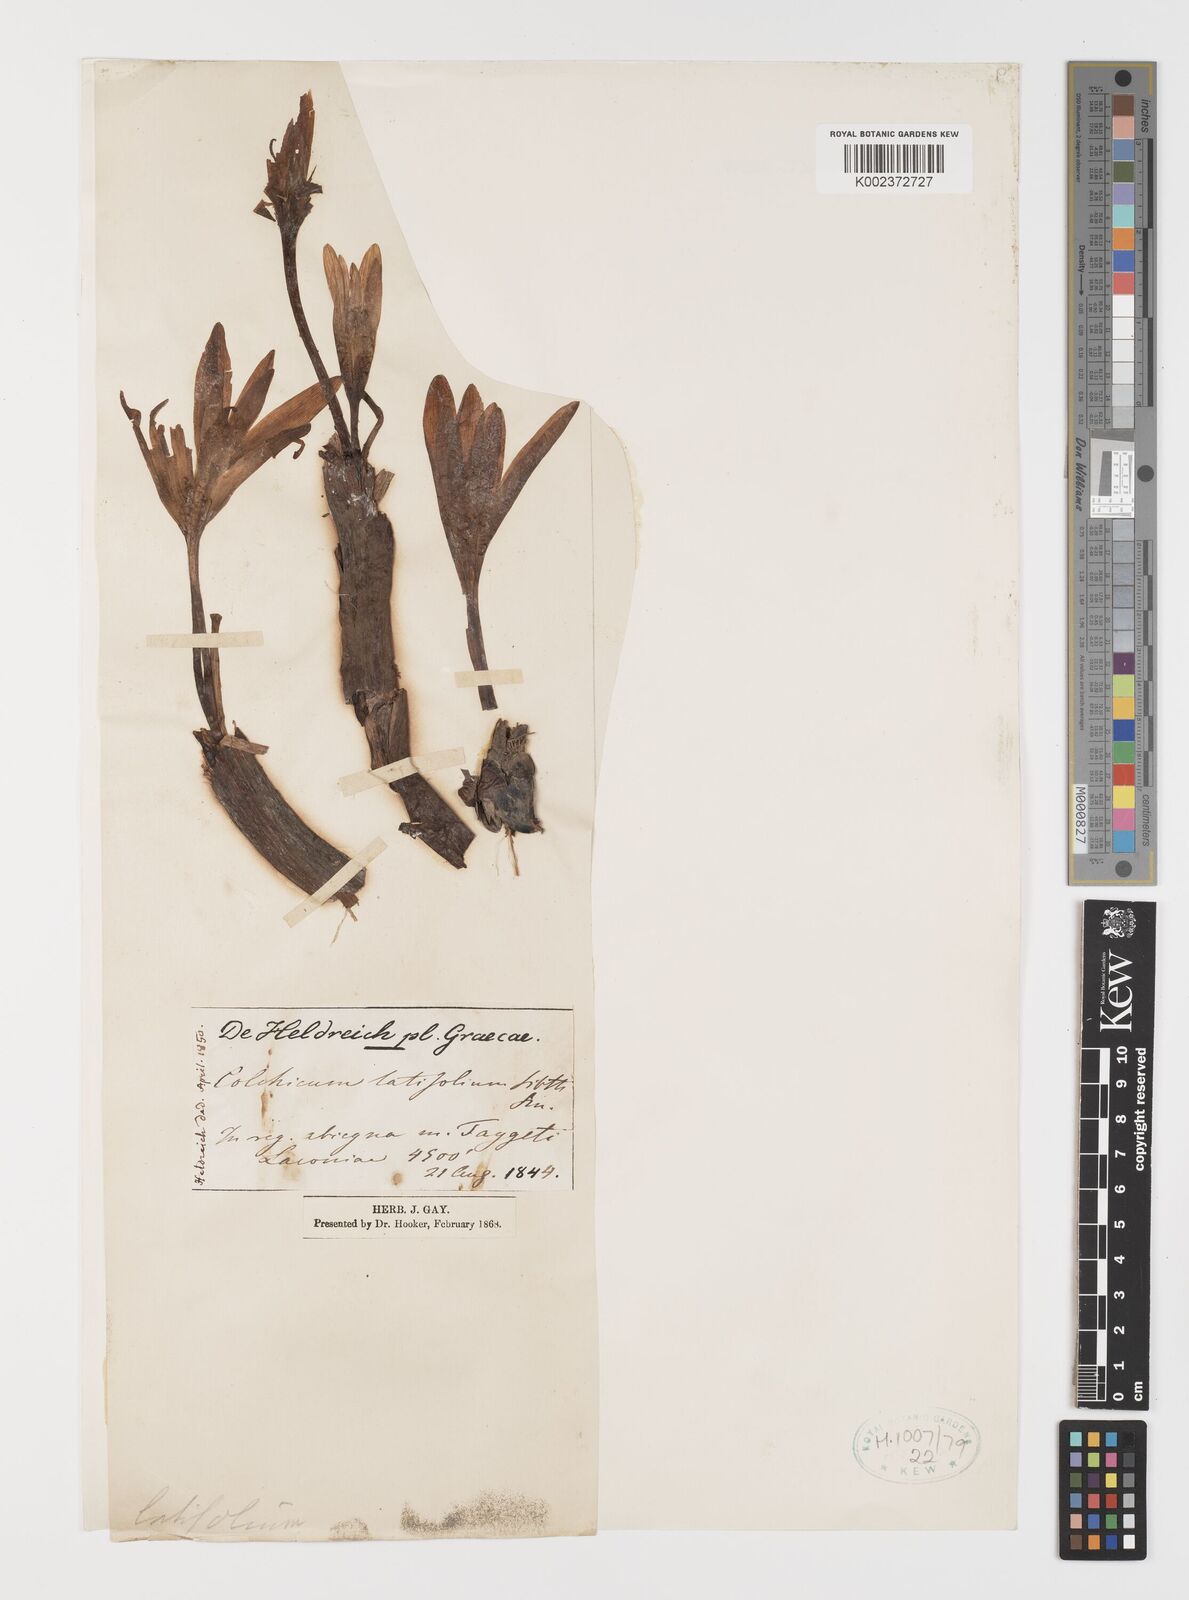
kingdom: Plantae
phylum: Tracheophyta
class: Liliopsida
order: Liliales
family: Colchicaceae
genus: Colchicum
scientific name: Colchicum hungaricum
